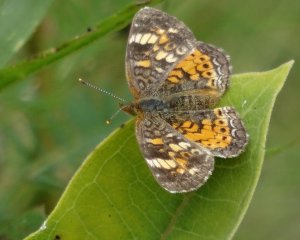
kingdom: Animalia
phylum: Arthropoda
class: Insecta
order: Lepidoptera
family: Nymphalidae
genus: Phyciodes
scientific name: Phyciodes tharos
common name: Northern Crescent
